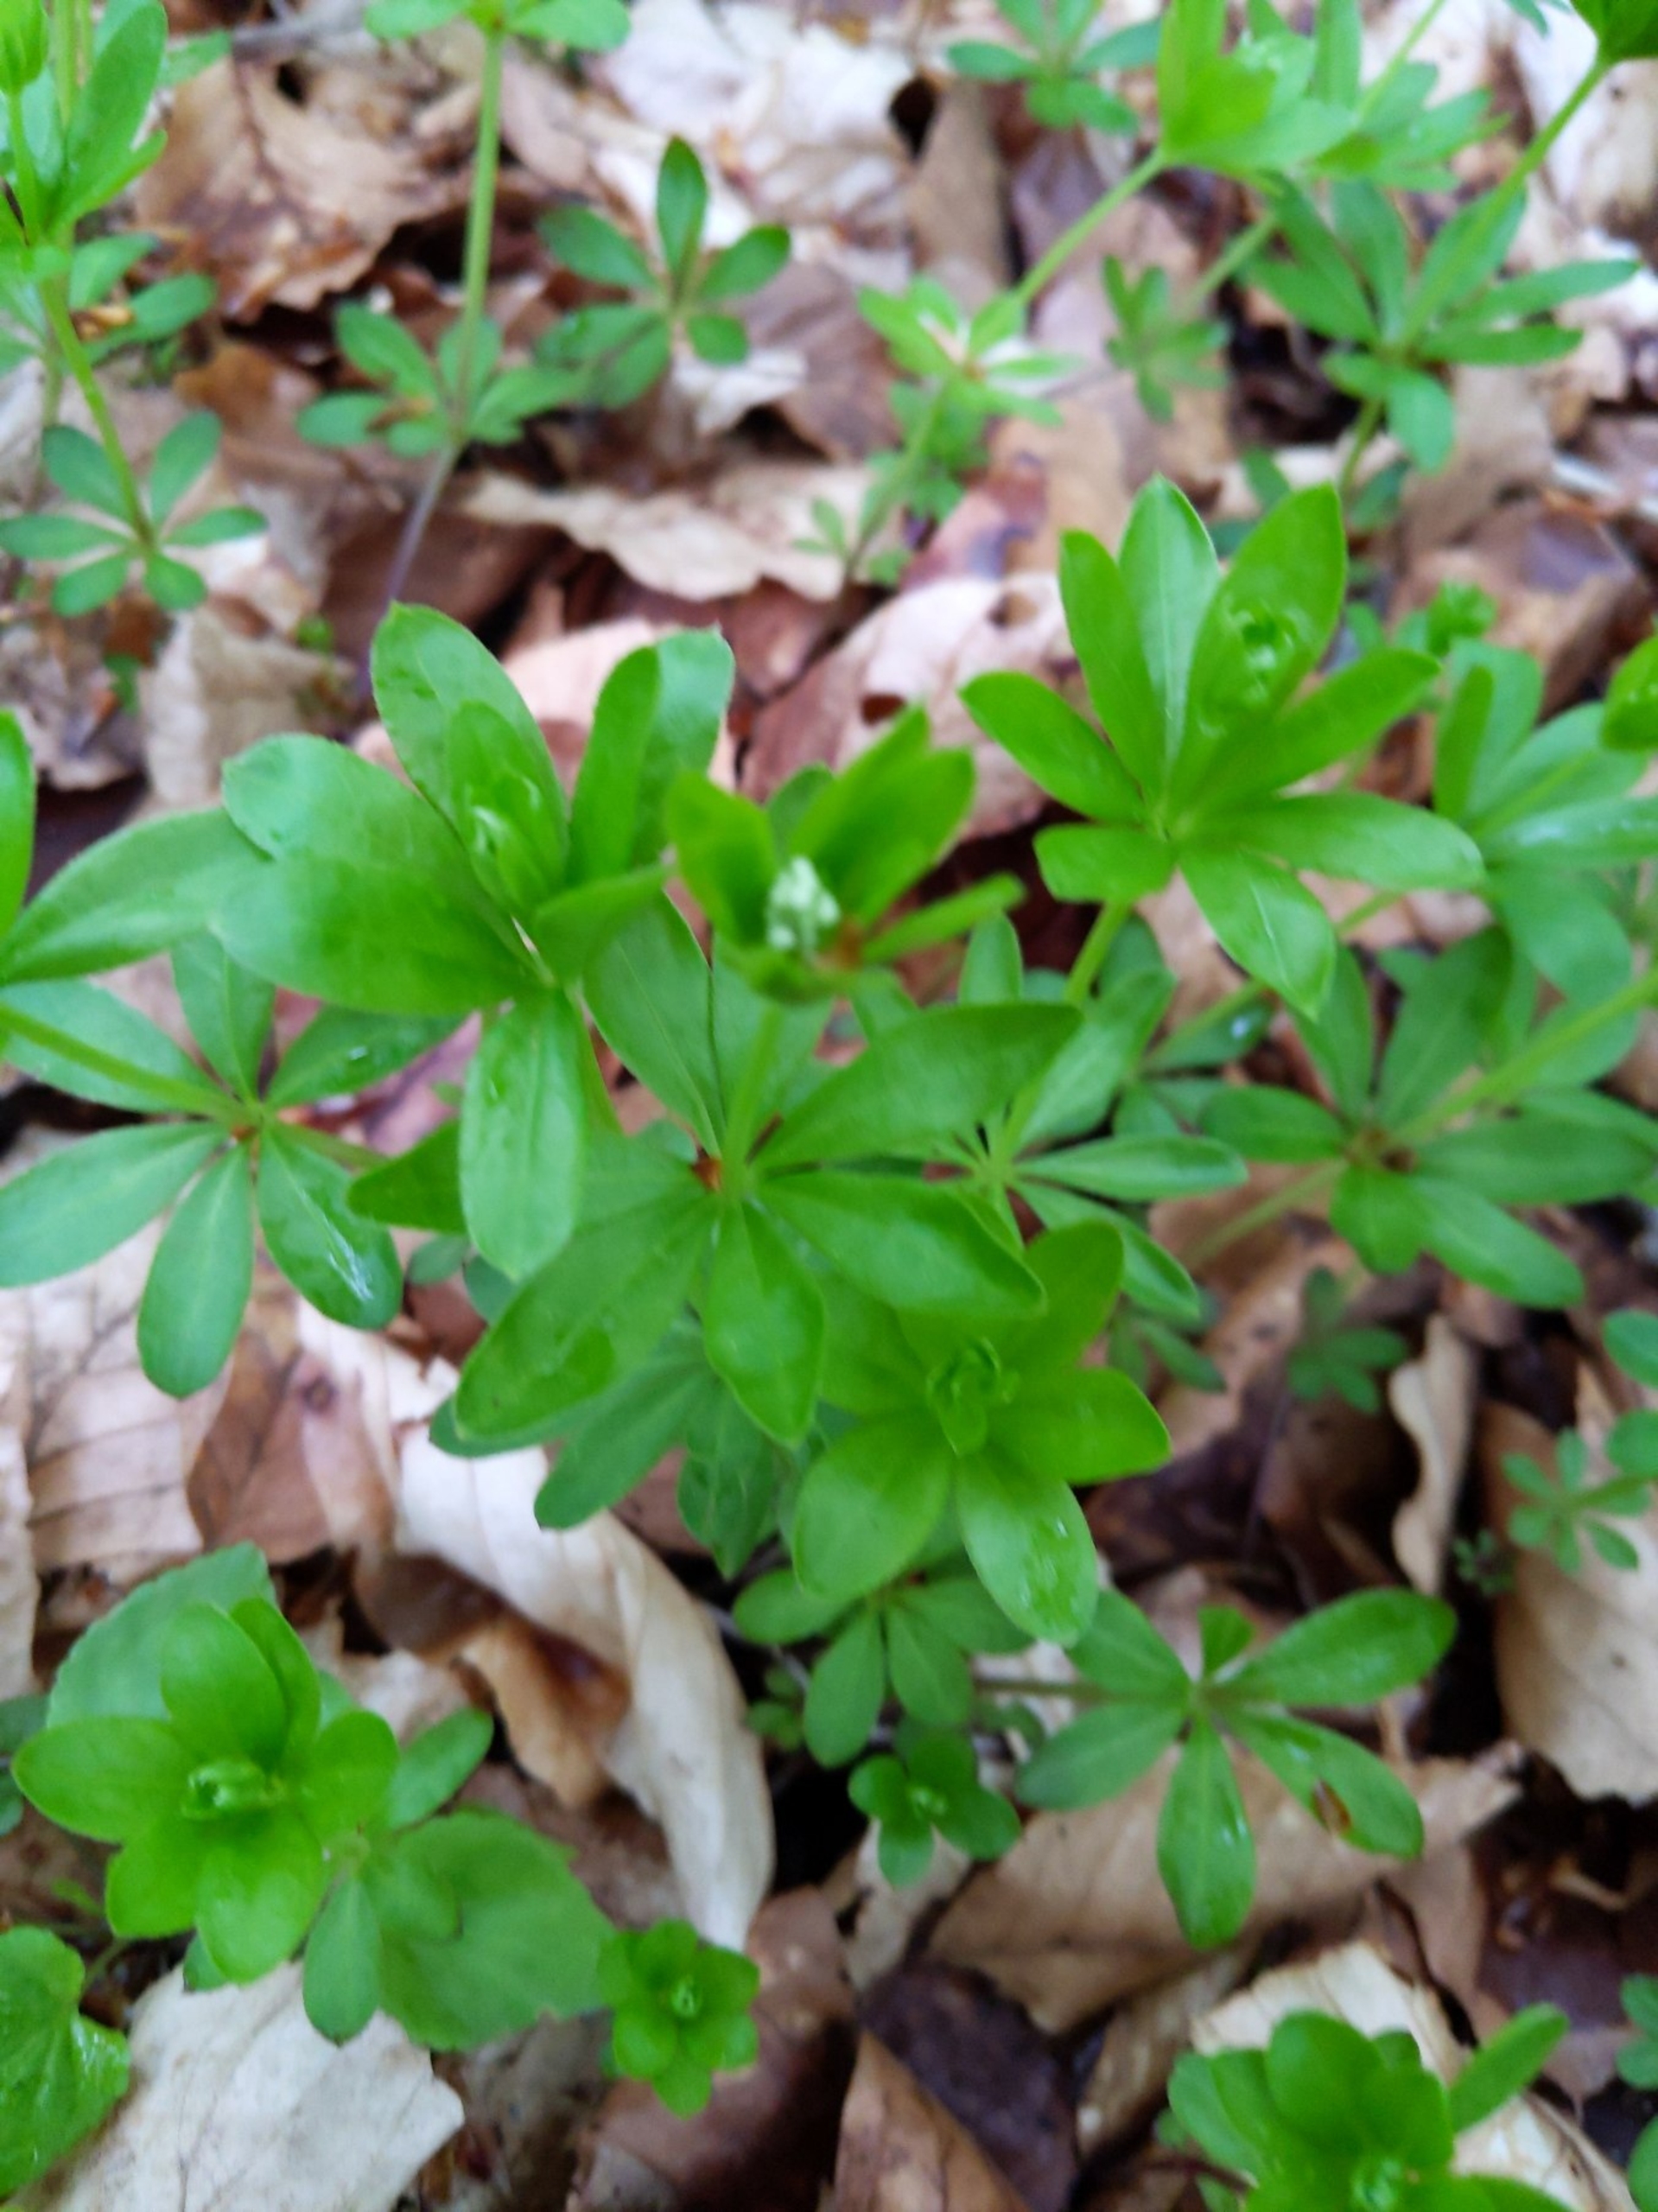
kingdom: Plantae
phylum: Tracheophyta
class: Magnoliopsida
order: Gentianales
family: Rubiaceae
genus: Galium
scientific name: Galium odoratum
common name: Skovmærke
